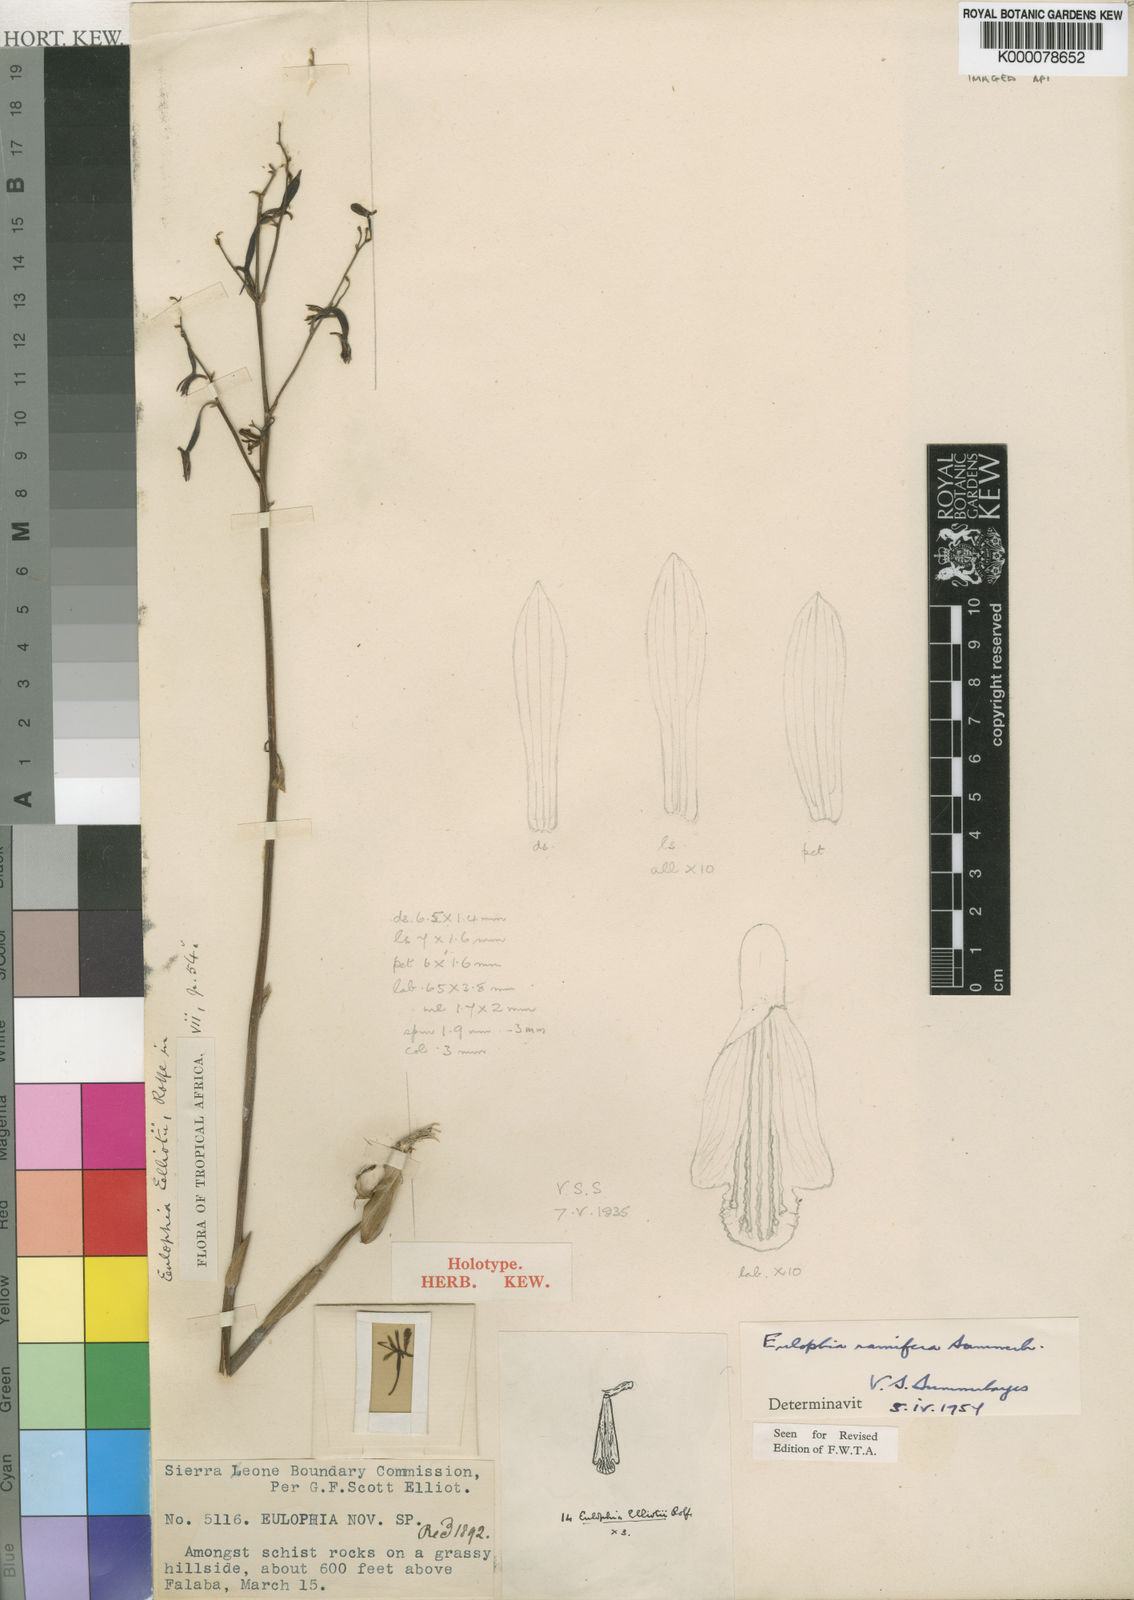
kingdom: Plantae
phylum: Tracheophyta
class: Liliopsida
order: Asparagales
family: Orchidaceae
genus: Eulophia
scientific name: Eulophia callichroma
